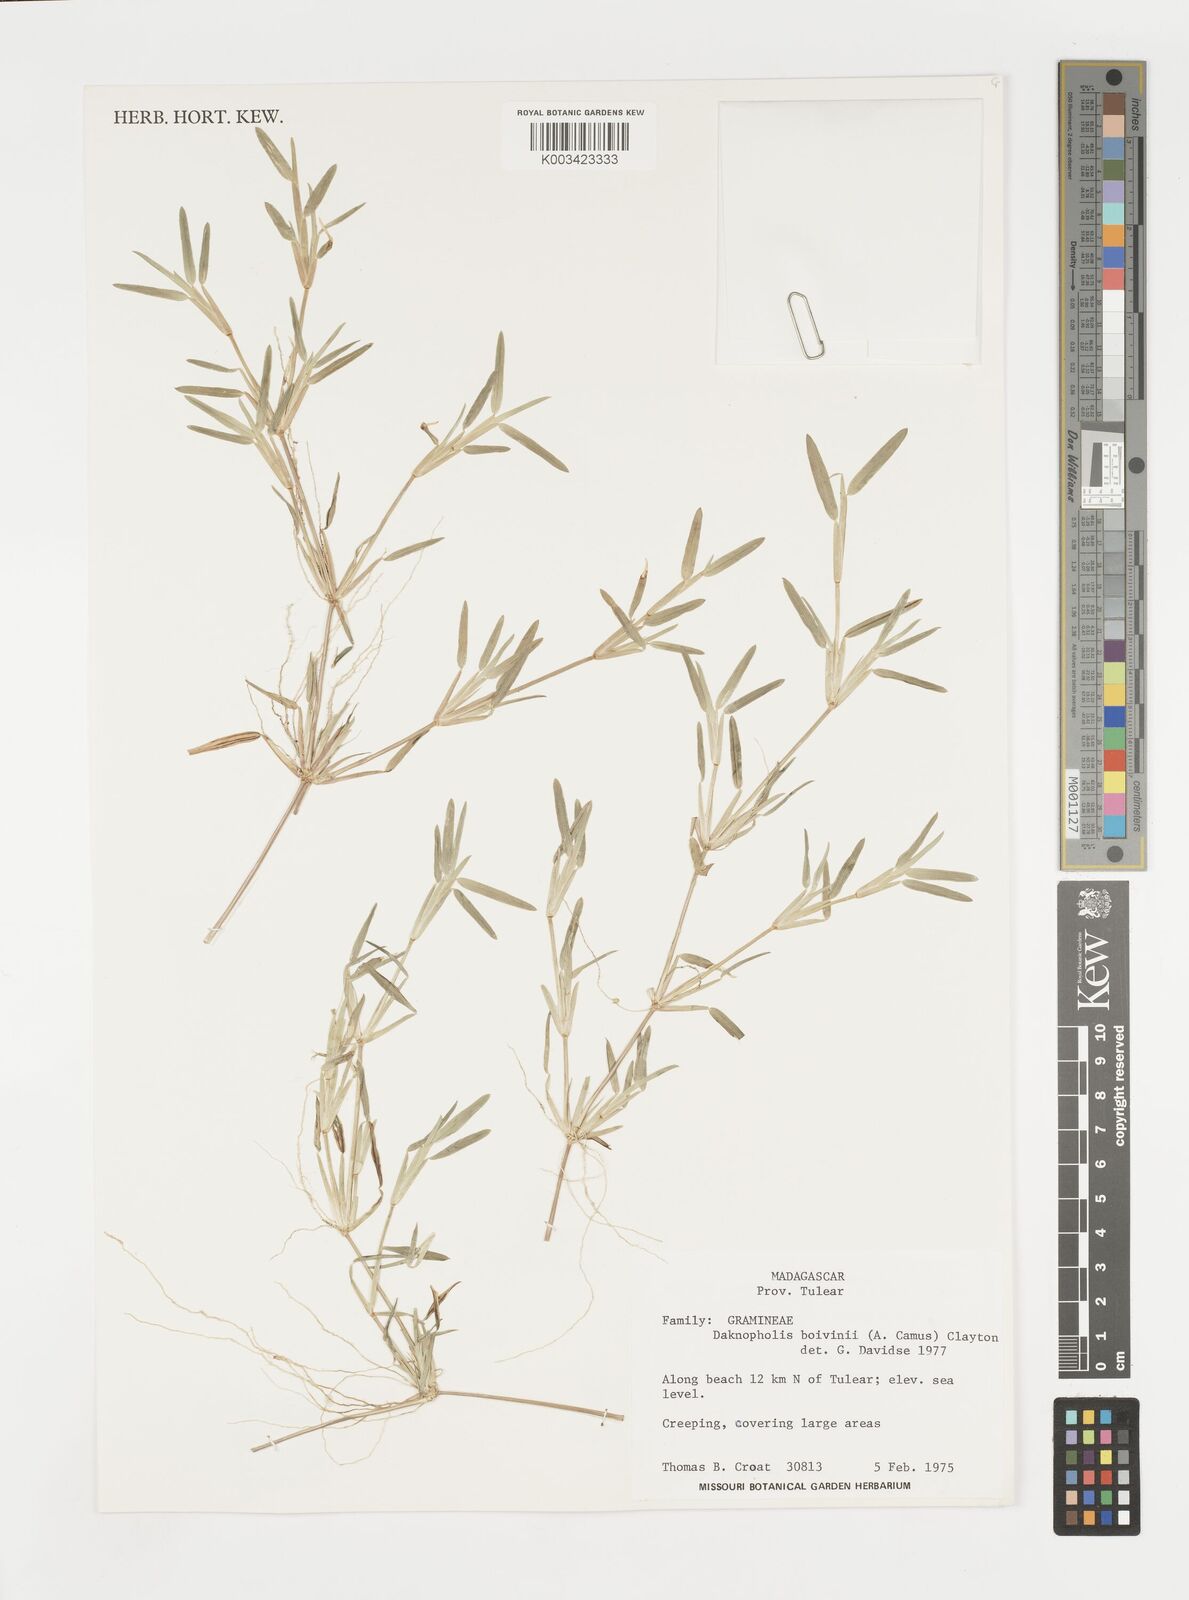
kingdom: Plantae
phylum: Tracheophyta
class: Liliopsida
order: Poales
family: Poaceae
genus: Daknopholis
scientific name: Daknopholis boivinii
